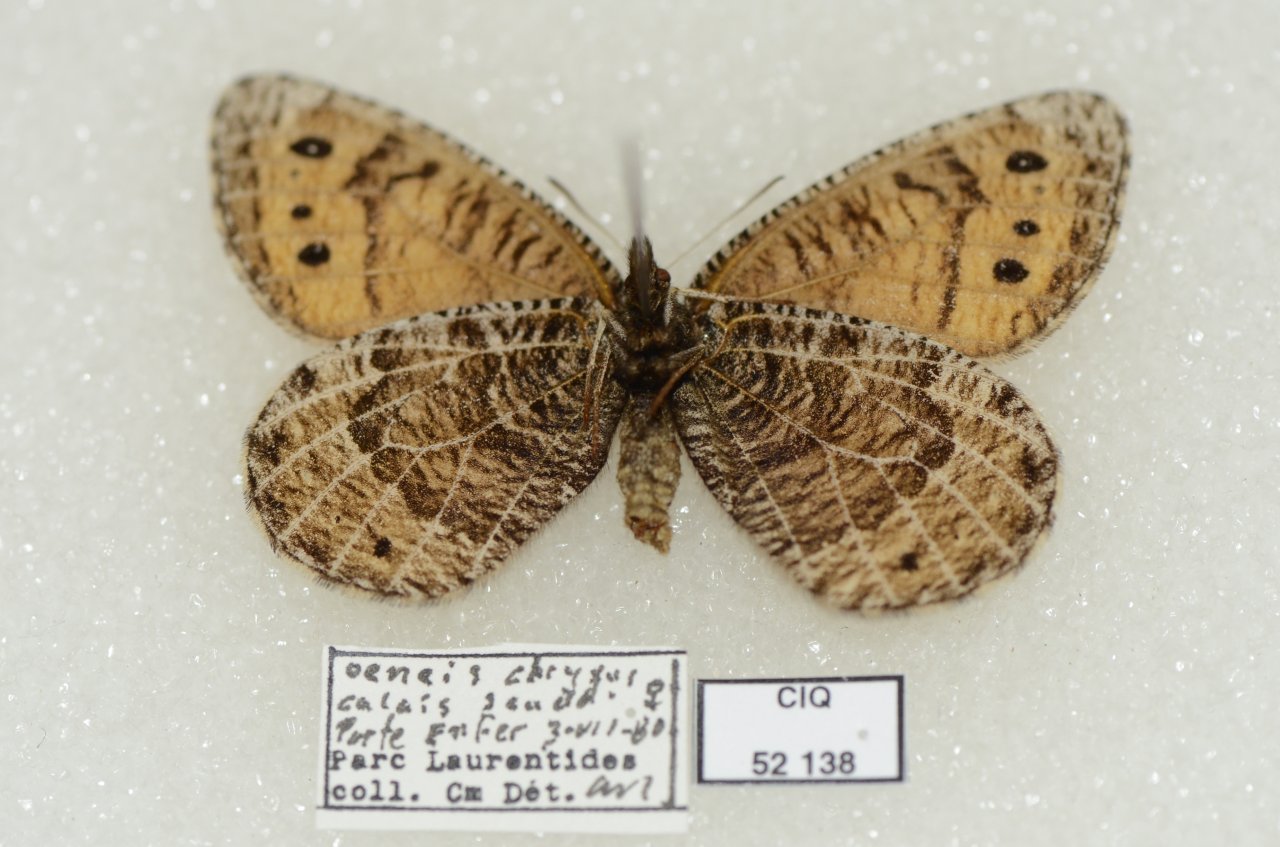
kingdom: Animalia
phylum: Arthropoda
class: Insecta
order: Lepidoptera
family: Nymphalidae
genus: Oeneis
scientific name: Oeneis chryxus
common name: Chryxus Arctic
